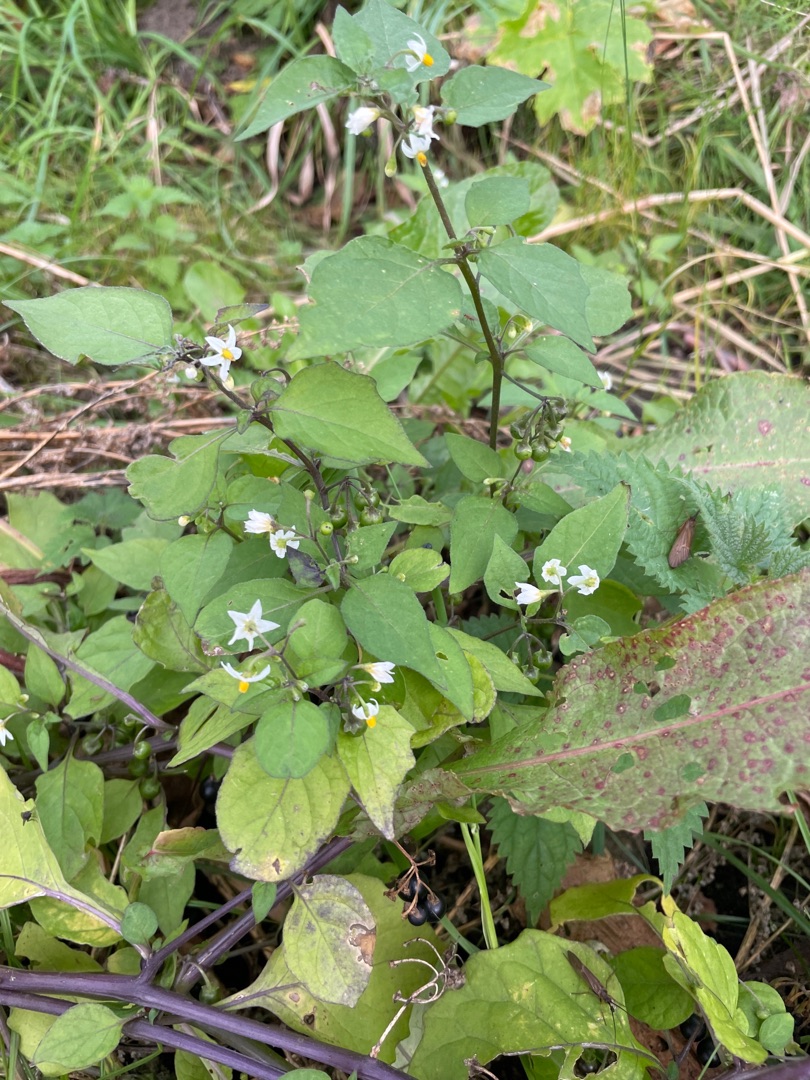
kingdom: Plantae
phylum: Tracheophyta
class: Magnoliopsida
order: Solanales
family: Solanaceae
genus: Solanum
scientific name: Solanum nigrum
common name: Sort natskygge
